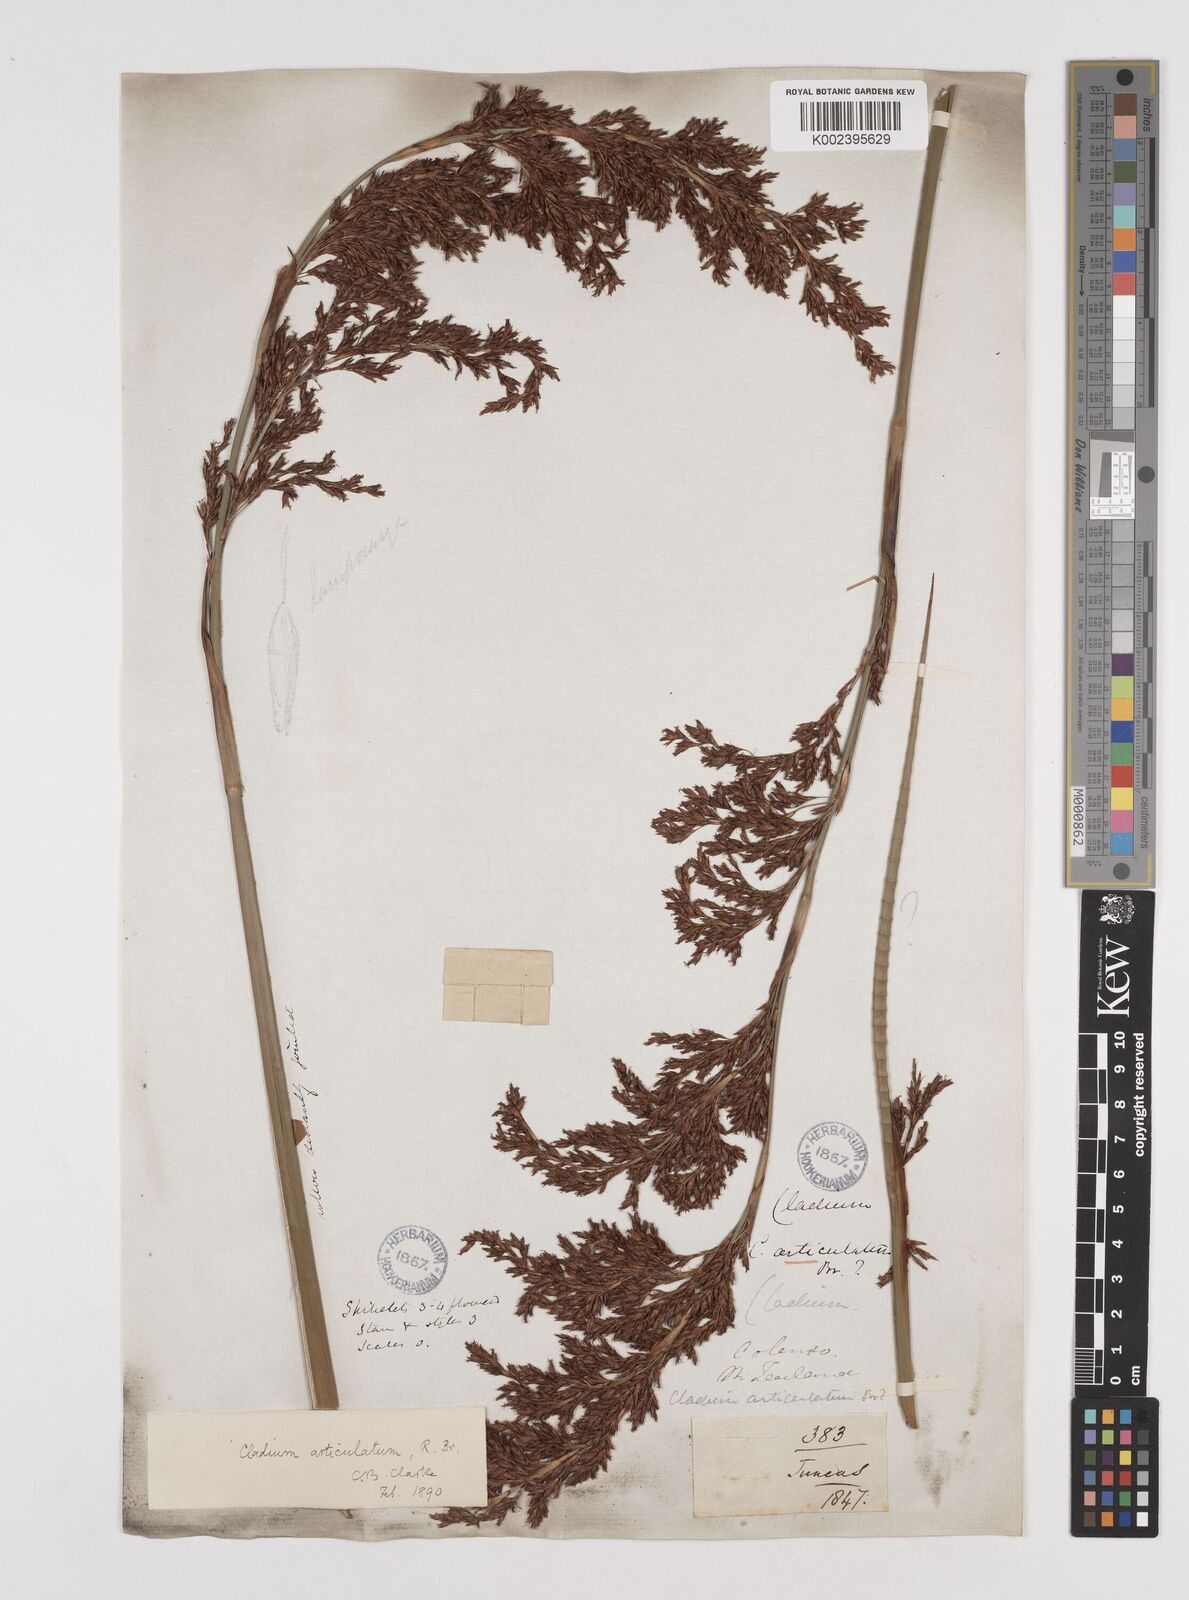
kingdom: Plantae
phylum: Tracheophyta
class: Liliopsida
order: Poales
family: Cyperaceae
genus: Machaerina
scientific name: Machaerina articulata
